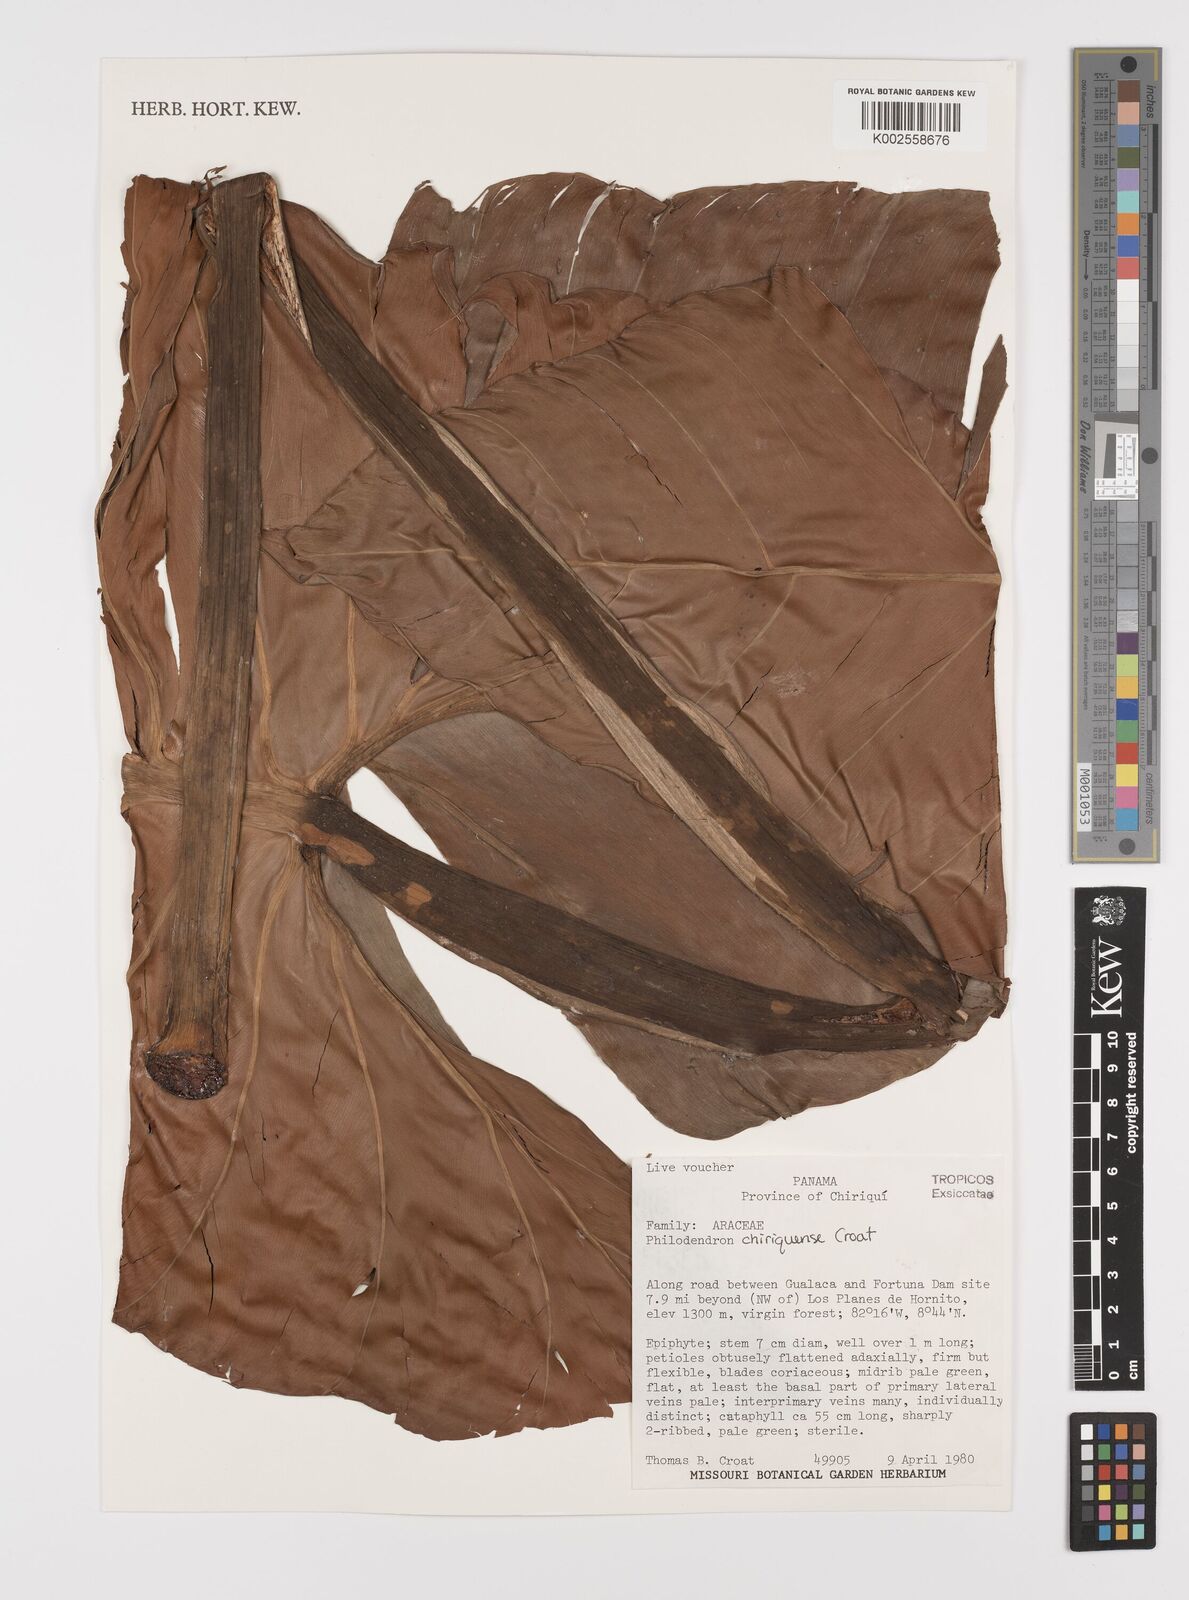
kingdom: Plantae
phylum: Tracheophyta
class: Liliopsida
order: Alismatales
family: Araceae
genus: Philodendron
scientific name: Philodendron chiriquense
